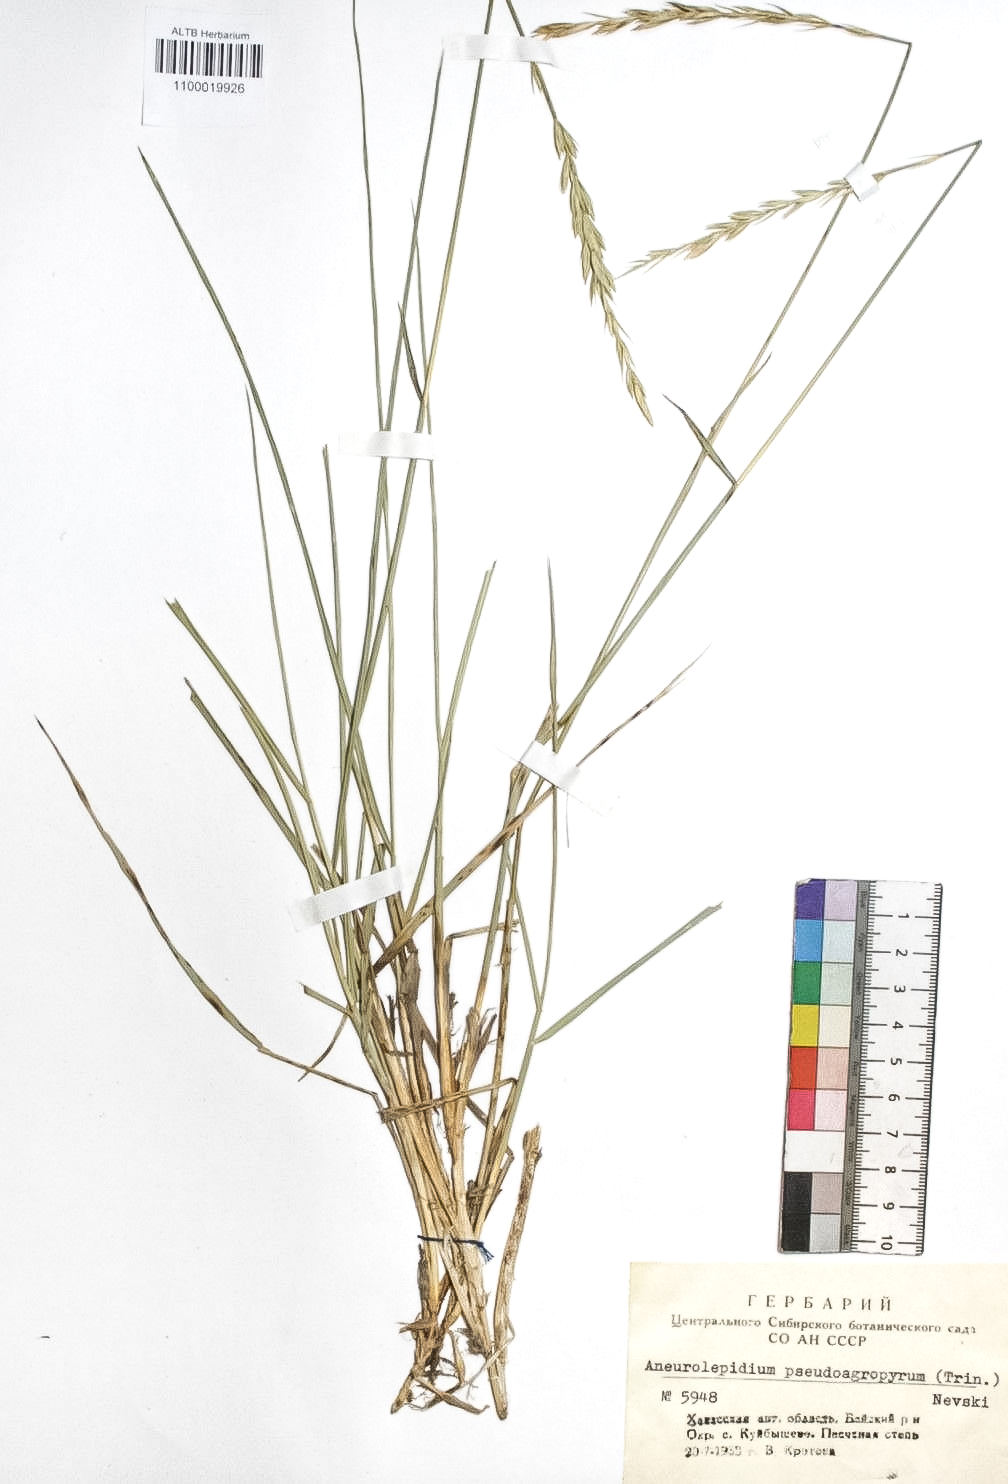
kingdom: Plantae
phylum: Tracheophyta
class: Liliopsida
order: Poales
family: Poaceae
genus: Leymus
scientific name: Leymus chinensis
